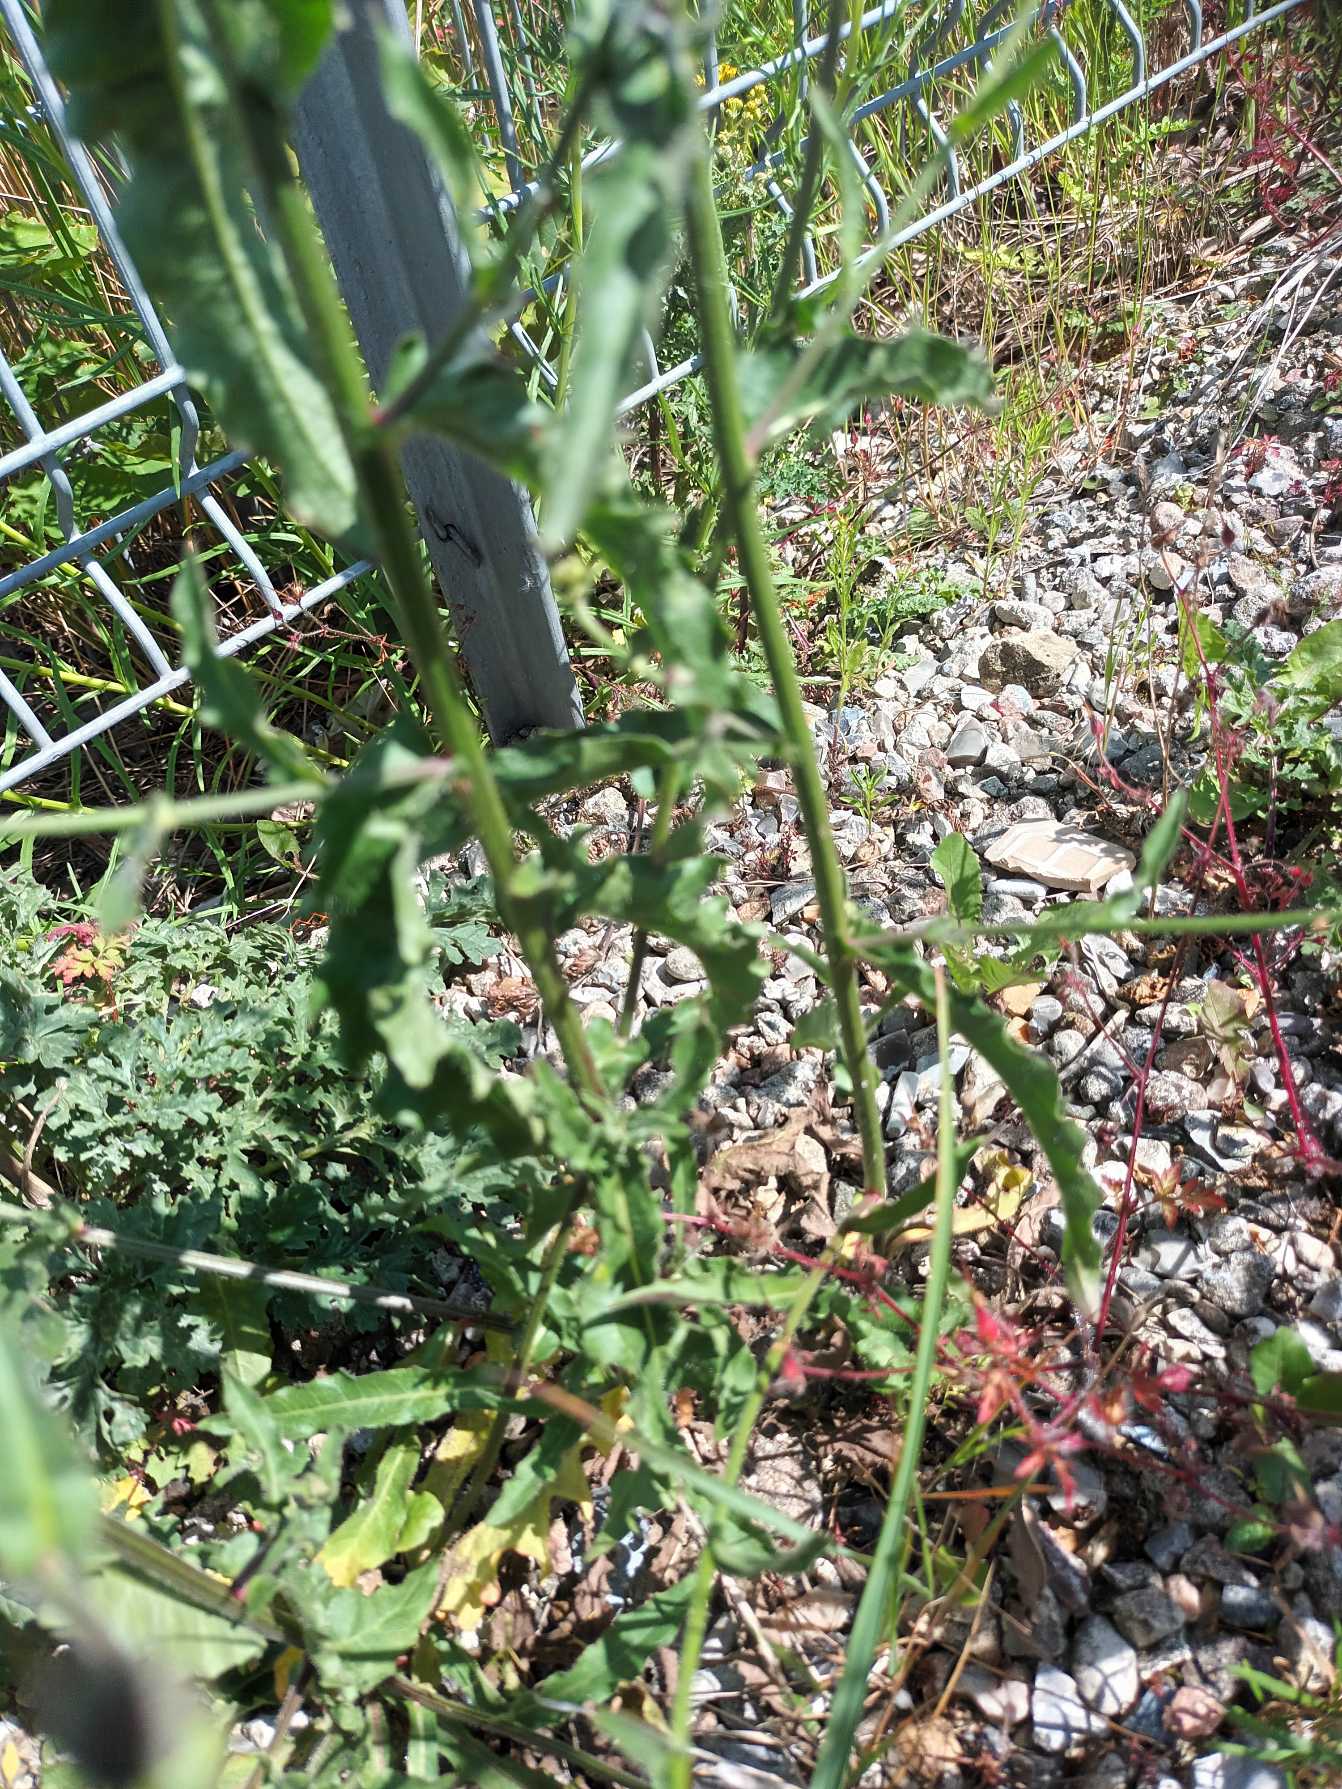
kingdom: Plantae
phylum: Tracheophyta
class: Magnoliopsida
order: Asterales
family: Asteraceae
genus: Picris
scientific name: Picris hieracioides
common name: Ru bittermælk
